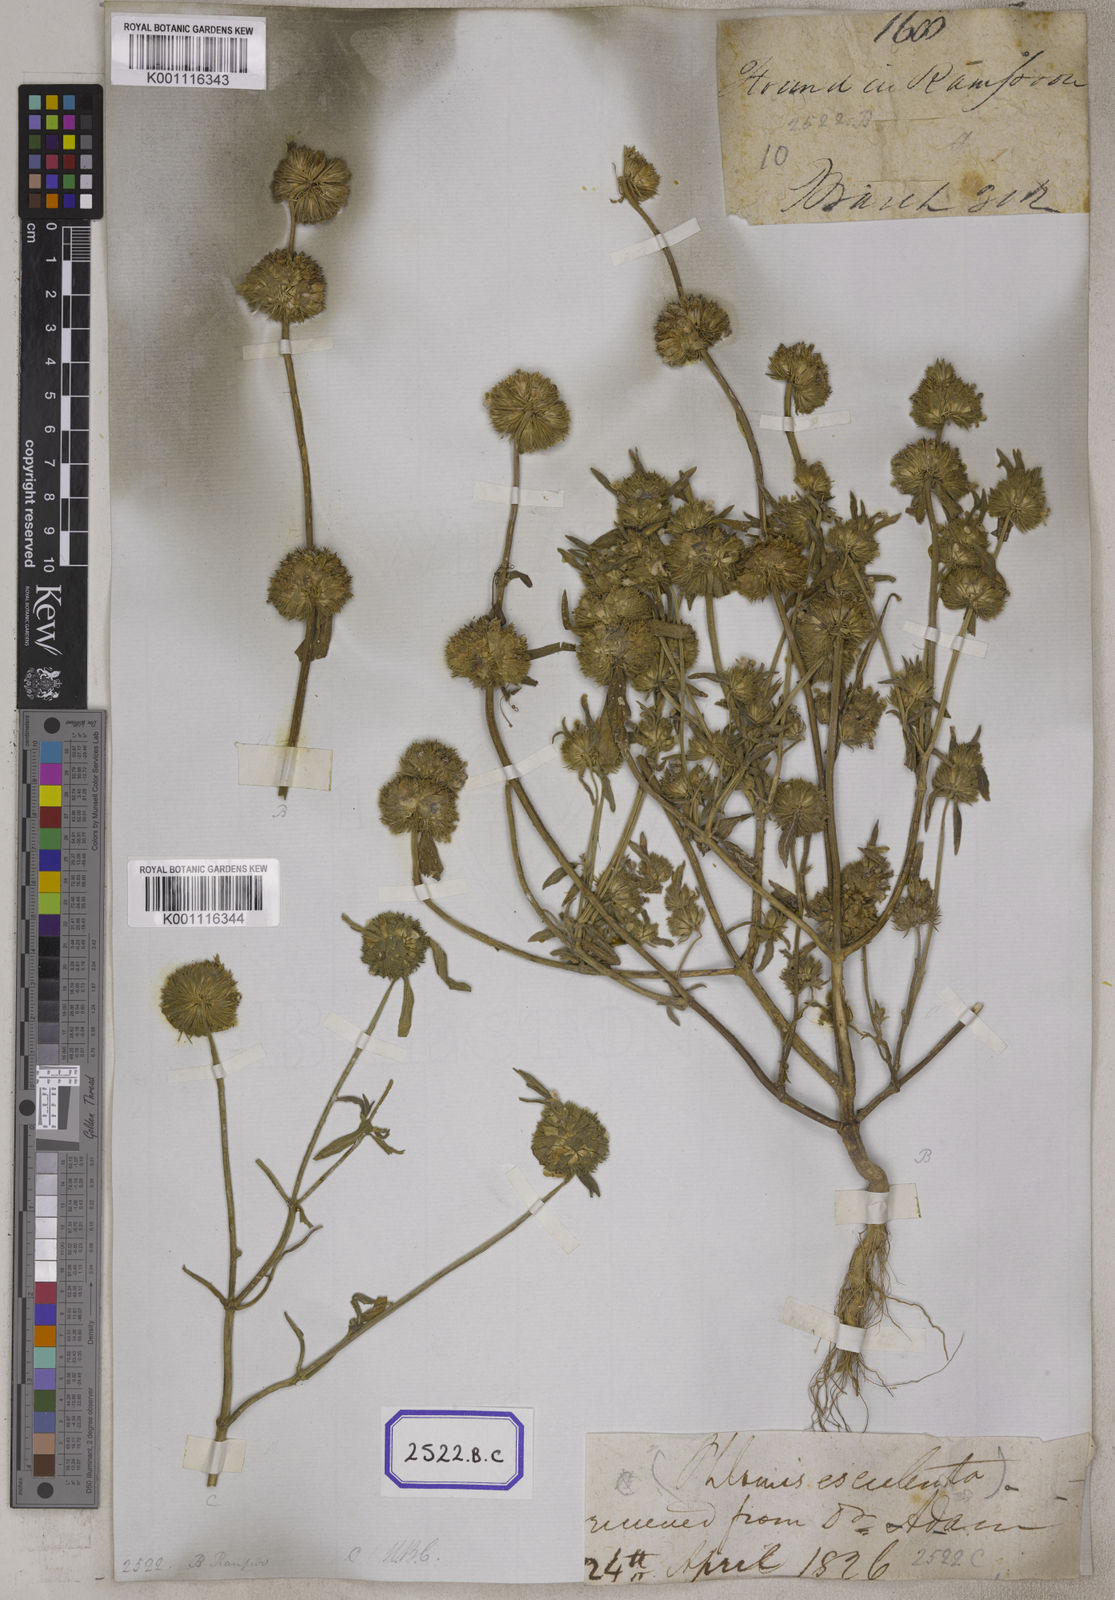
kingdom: Plantae
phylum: Tracheophyta
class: Magnoliopsida
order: Lamiales
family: Lamiaceae
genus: Leucas
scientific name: Leucas aspera
